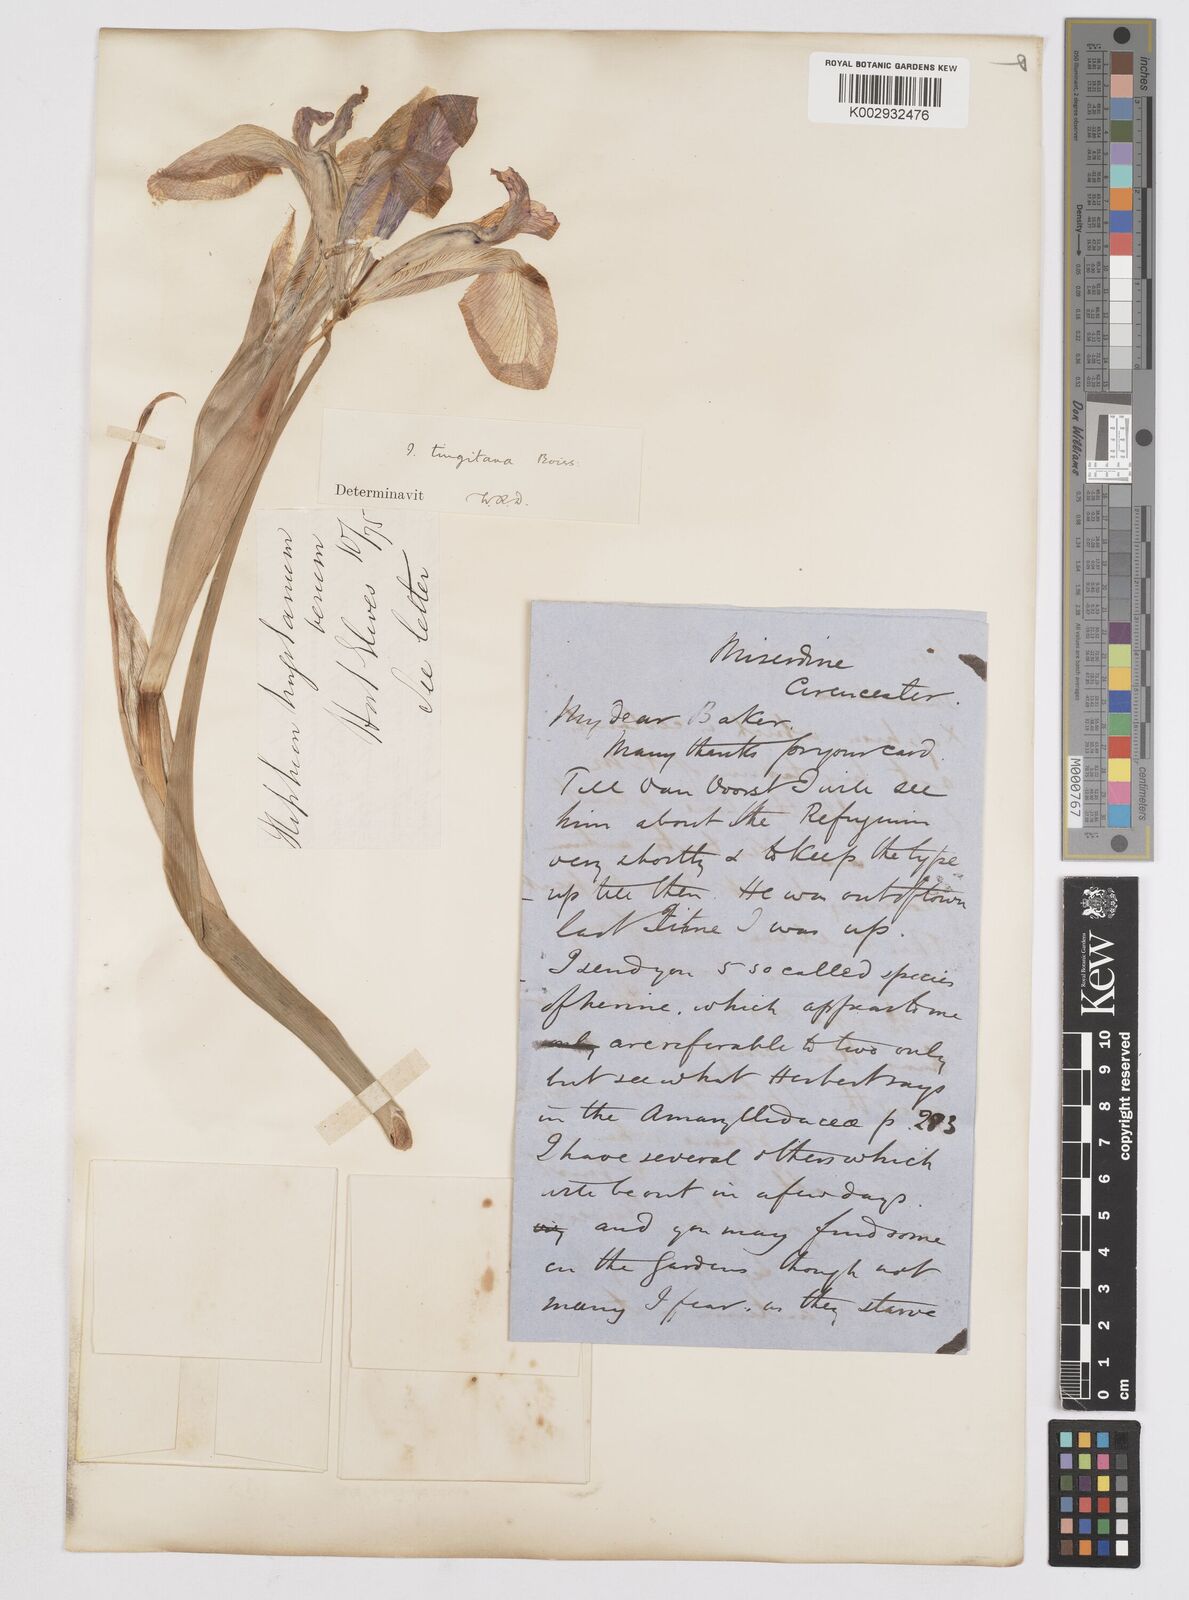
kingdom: Plantae
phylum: Tracheophyta
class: Liliopsida
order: Asparagales
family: Iridaceae
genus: Iris
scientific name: Iris tingitana
